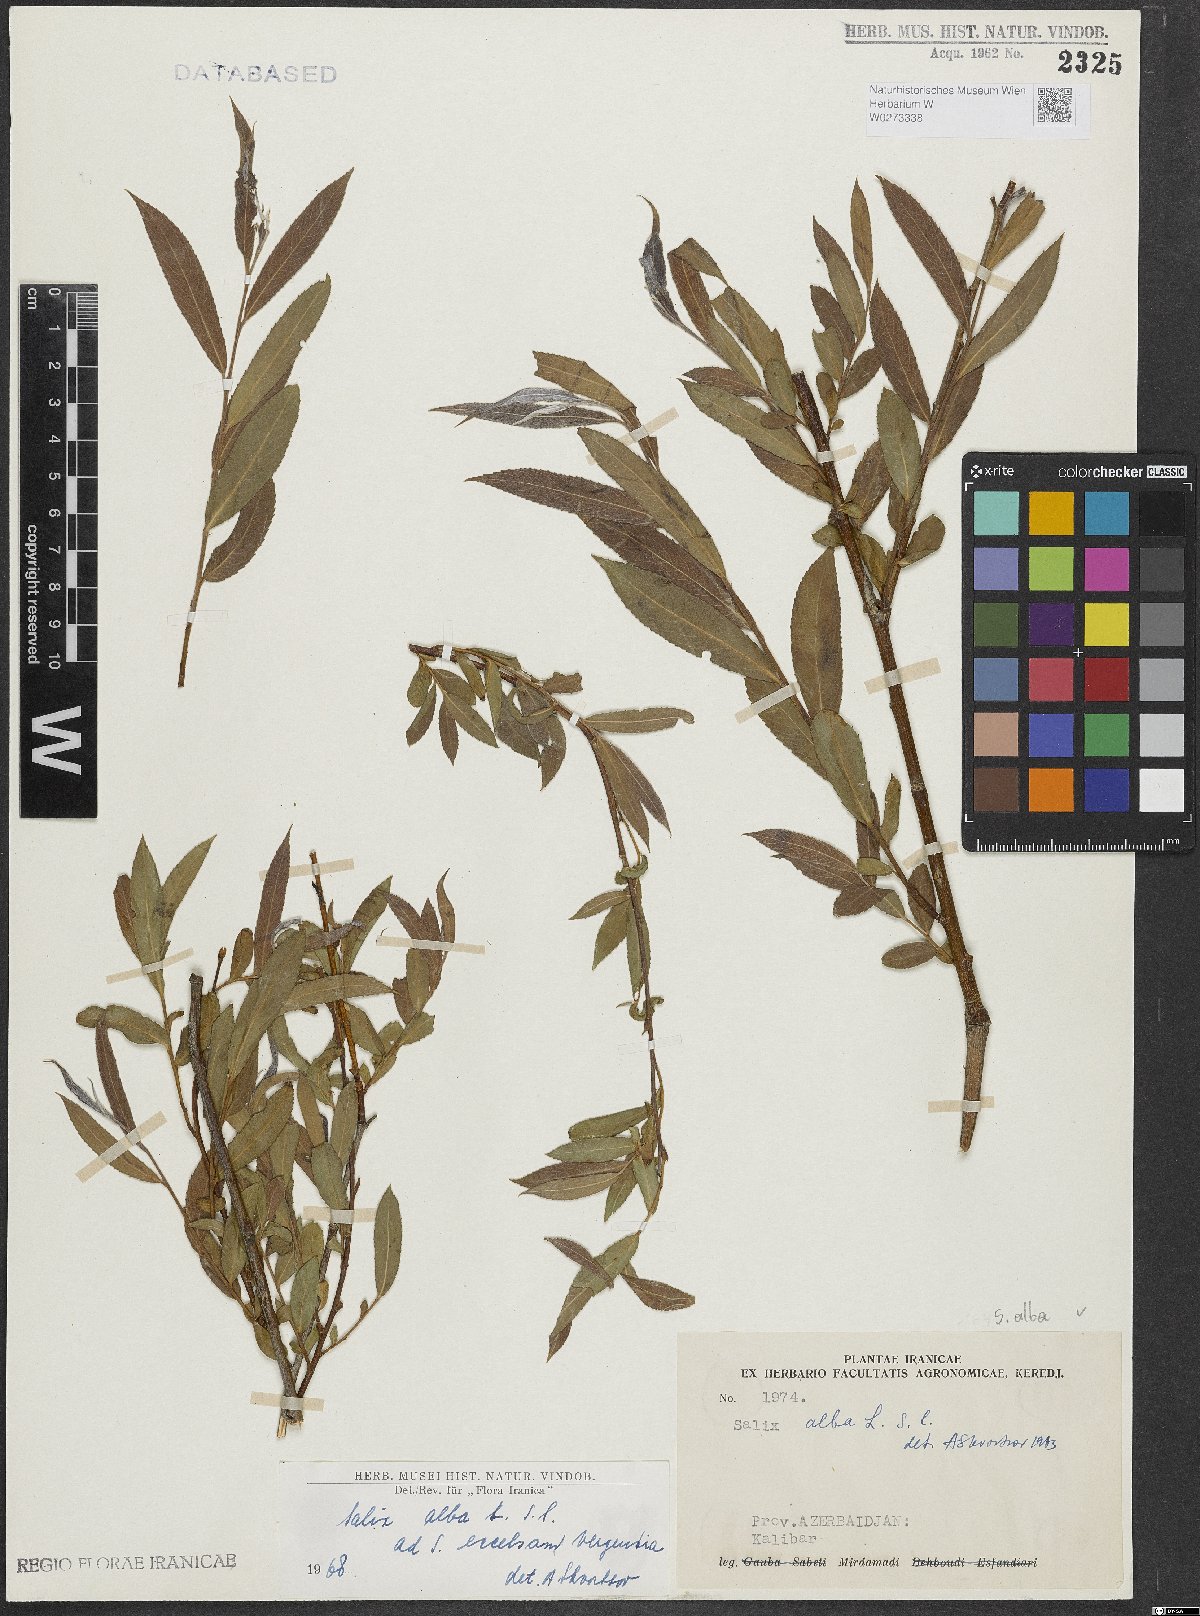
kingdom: Plantae
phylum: Tracheophyta
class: Magnoliopsida
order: Malpighiales
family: Salicaceae
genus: Salix
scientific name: Salix alba
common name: White willow
